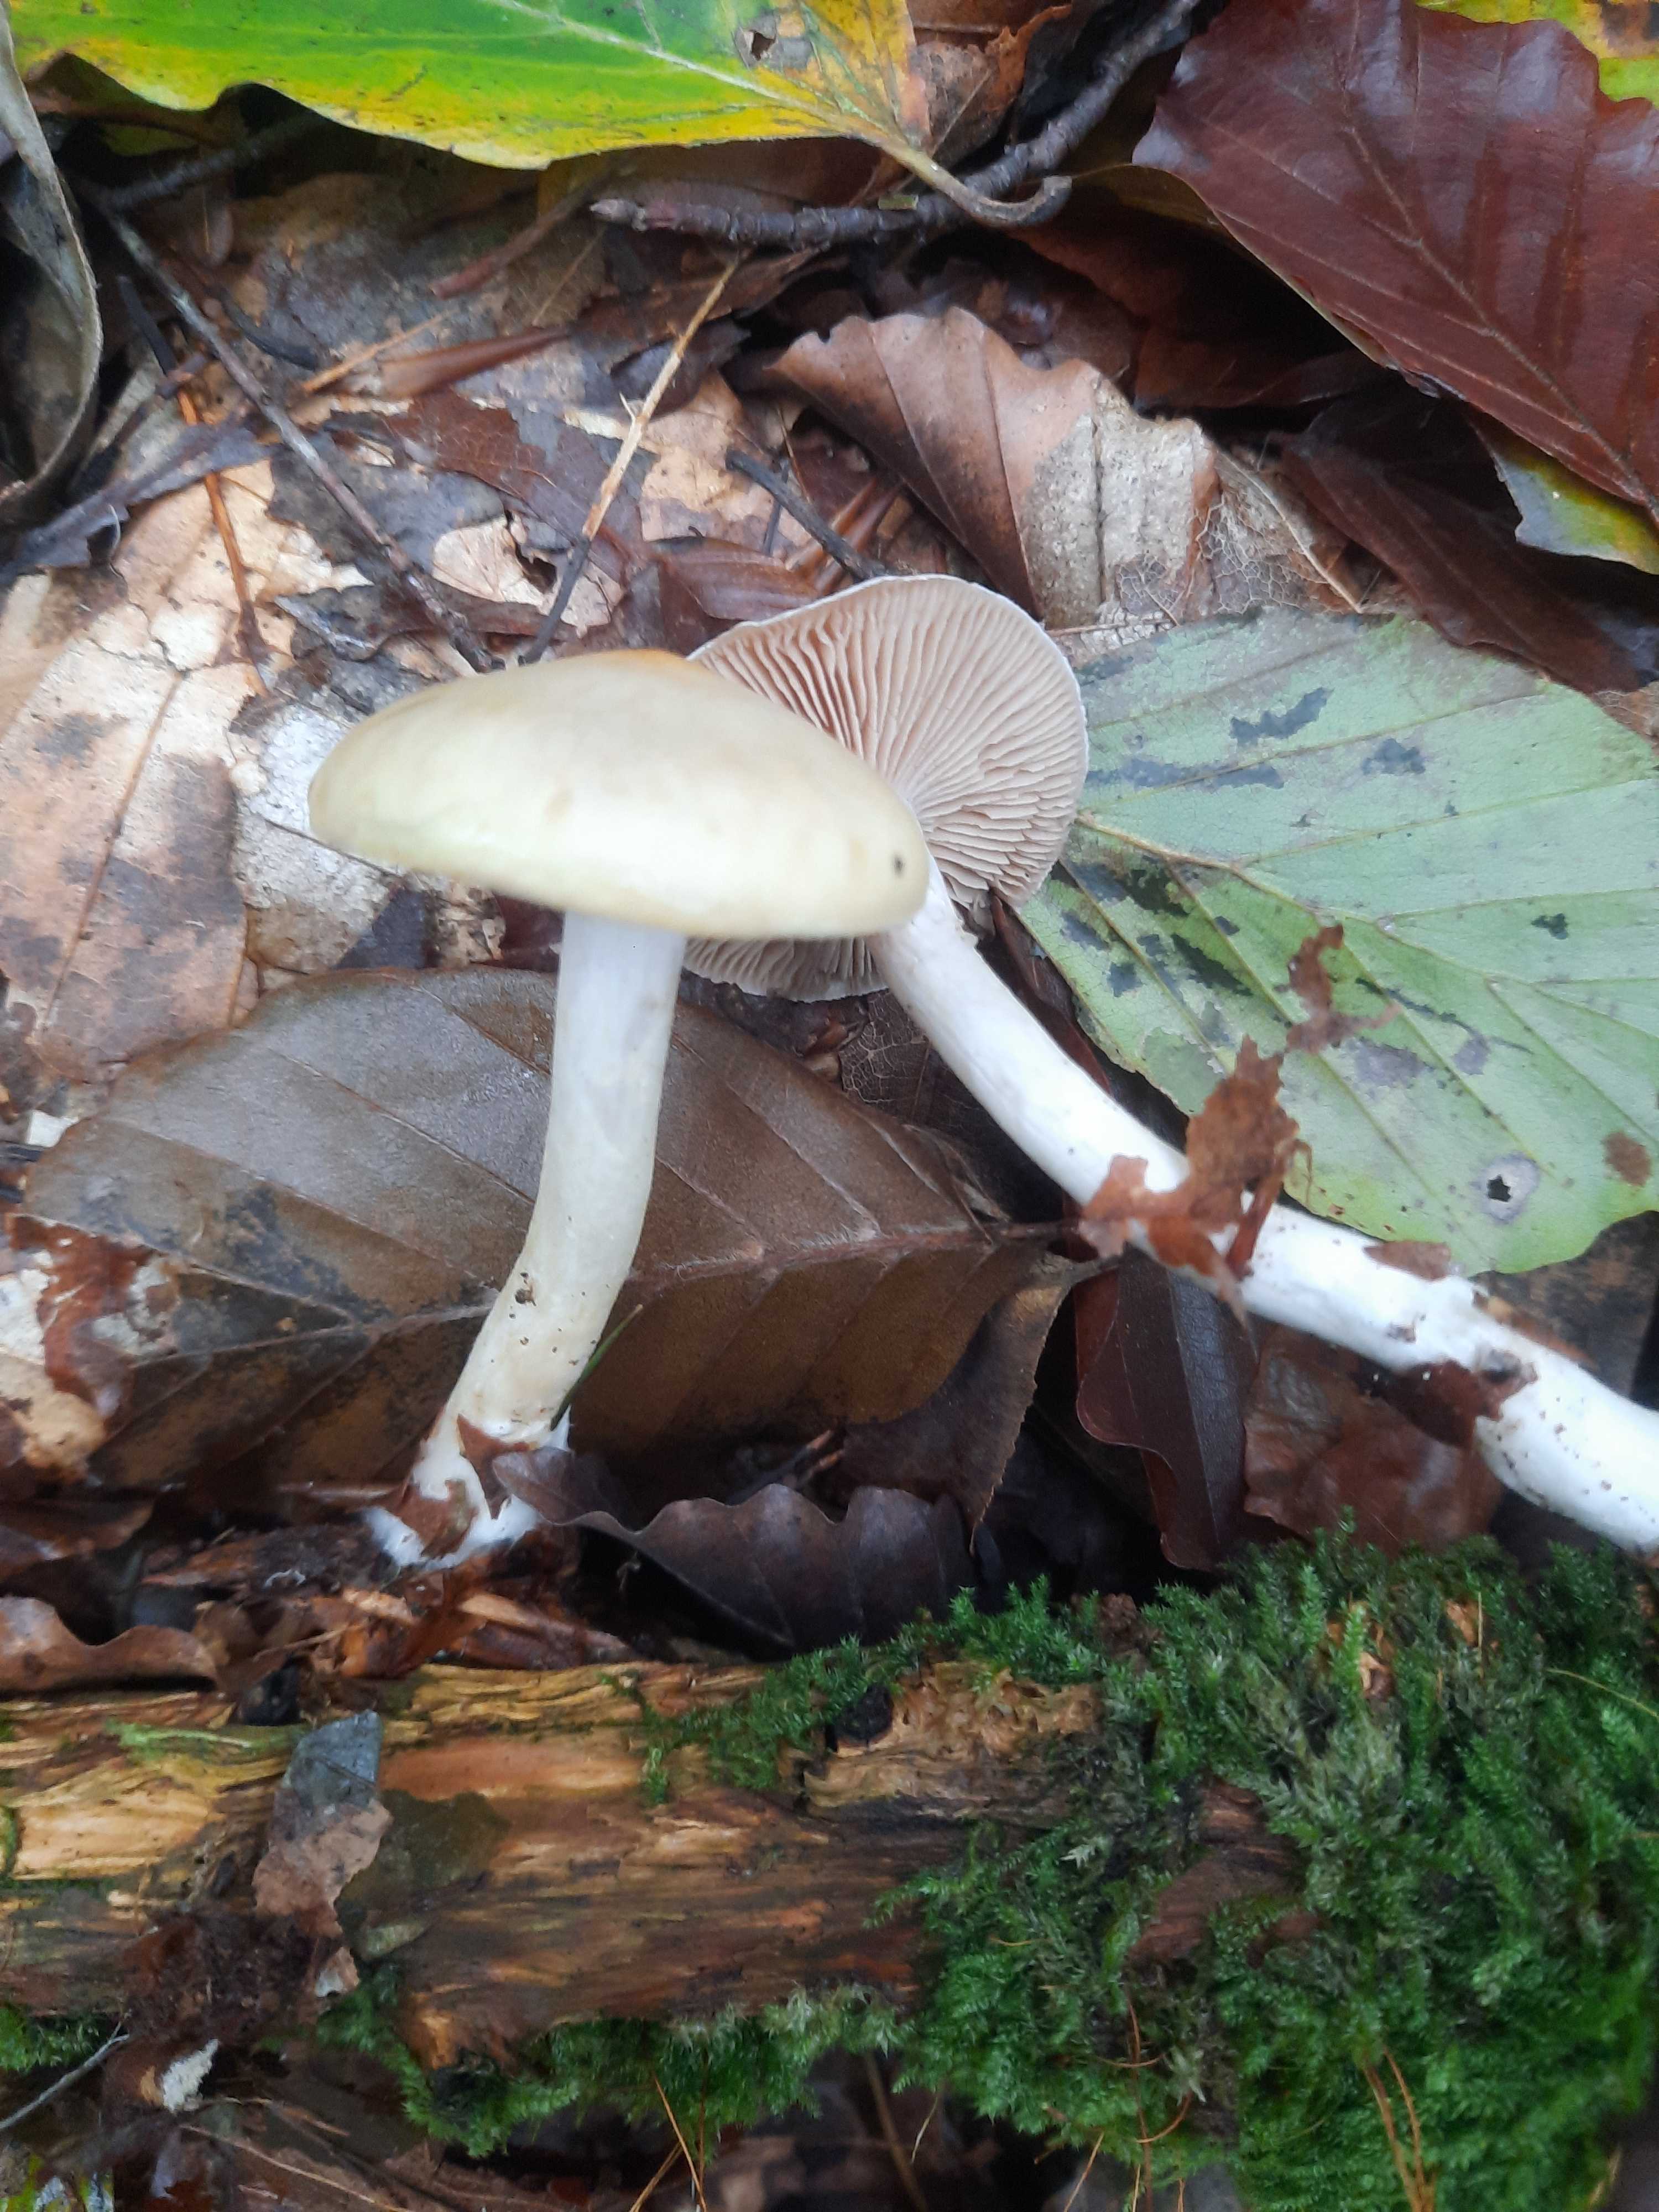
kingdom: Fungi
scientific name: Fungi
